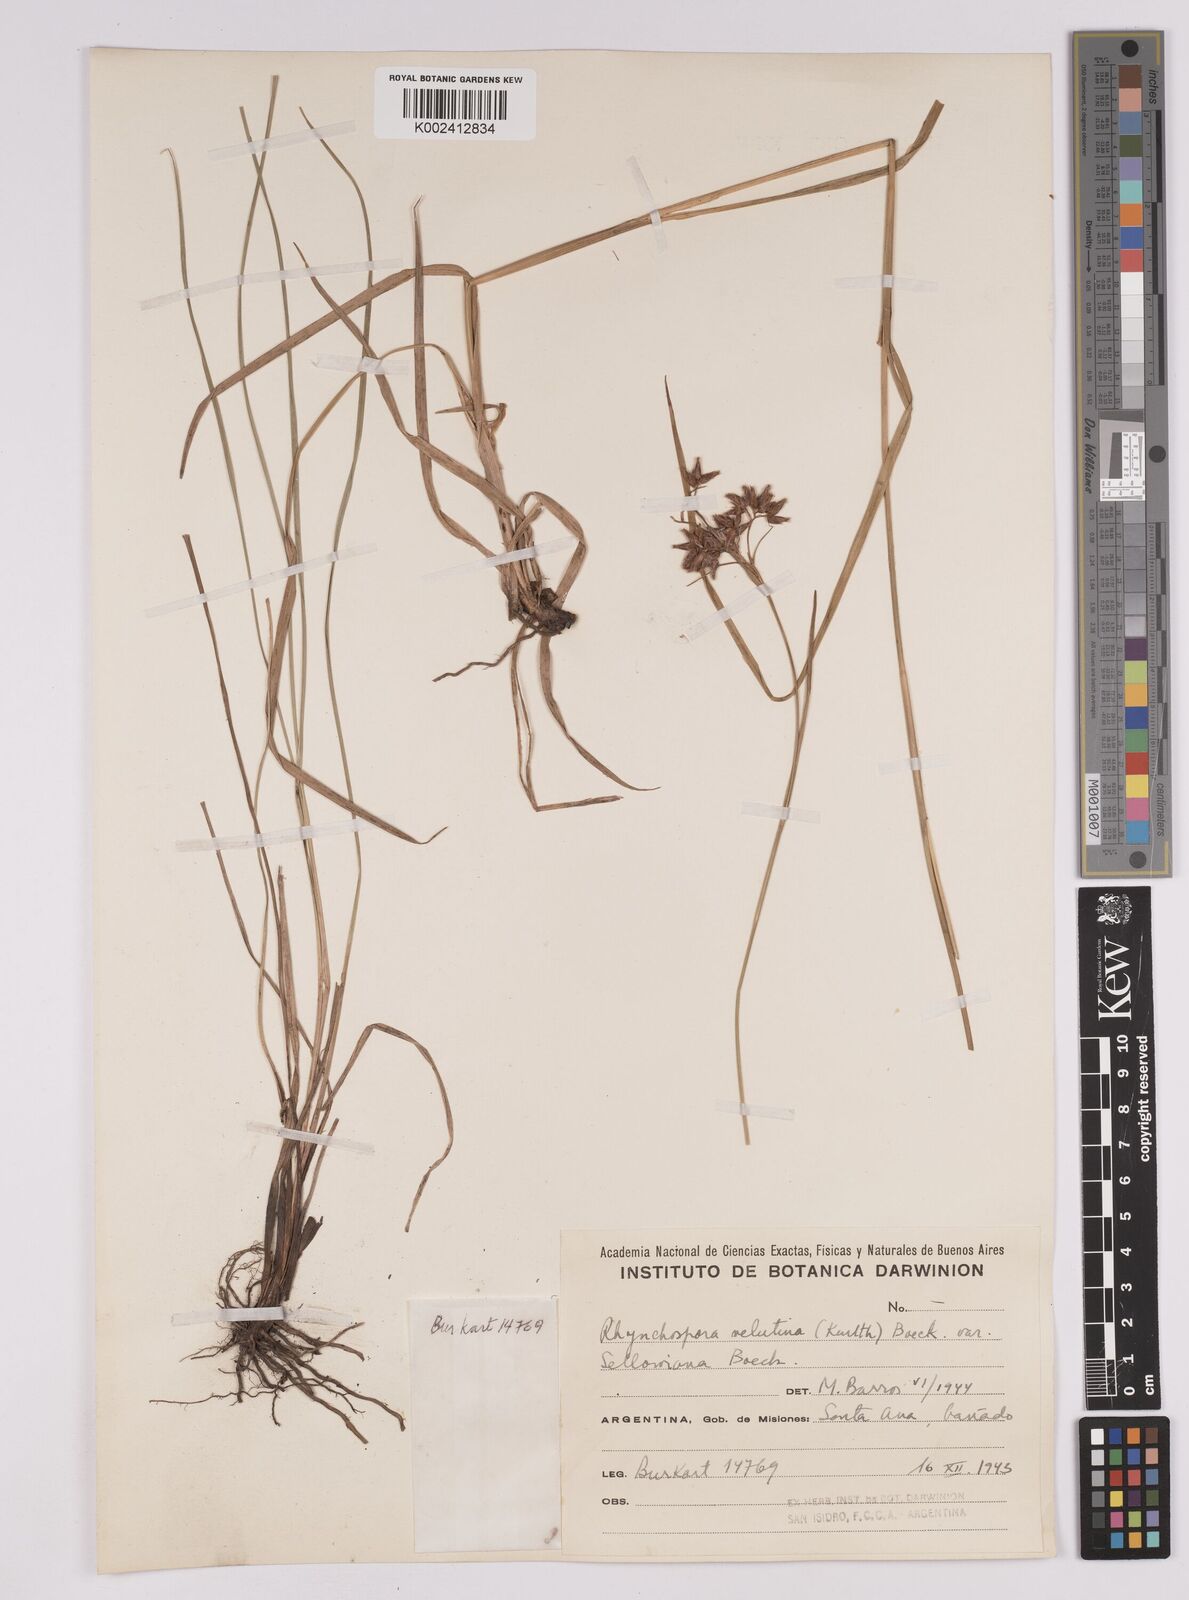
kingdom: Plantae
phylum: Tracheophyta
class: Liliopsida
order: Poales
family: Cyperaceae
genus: Rhynchospora
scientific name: Rhynchospora robusta
